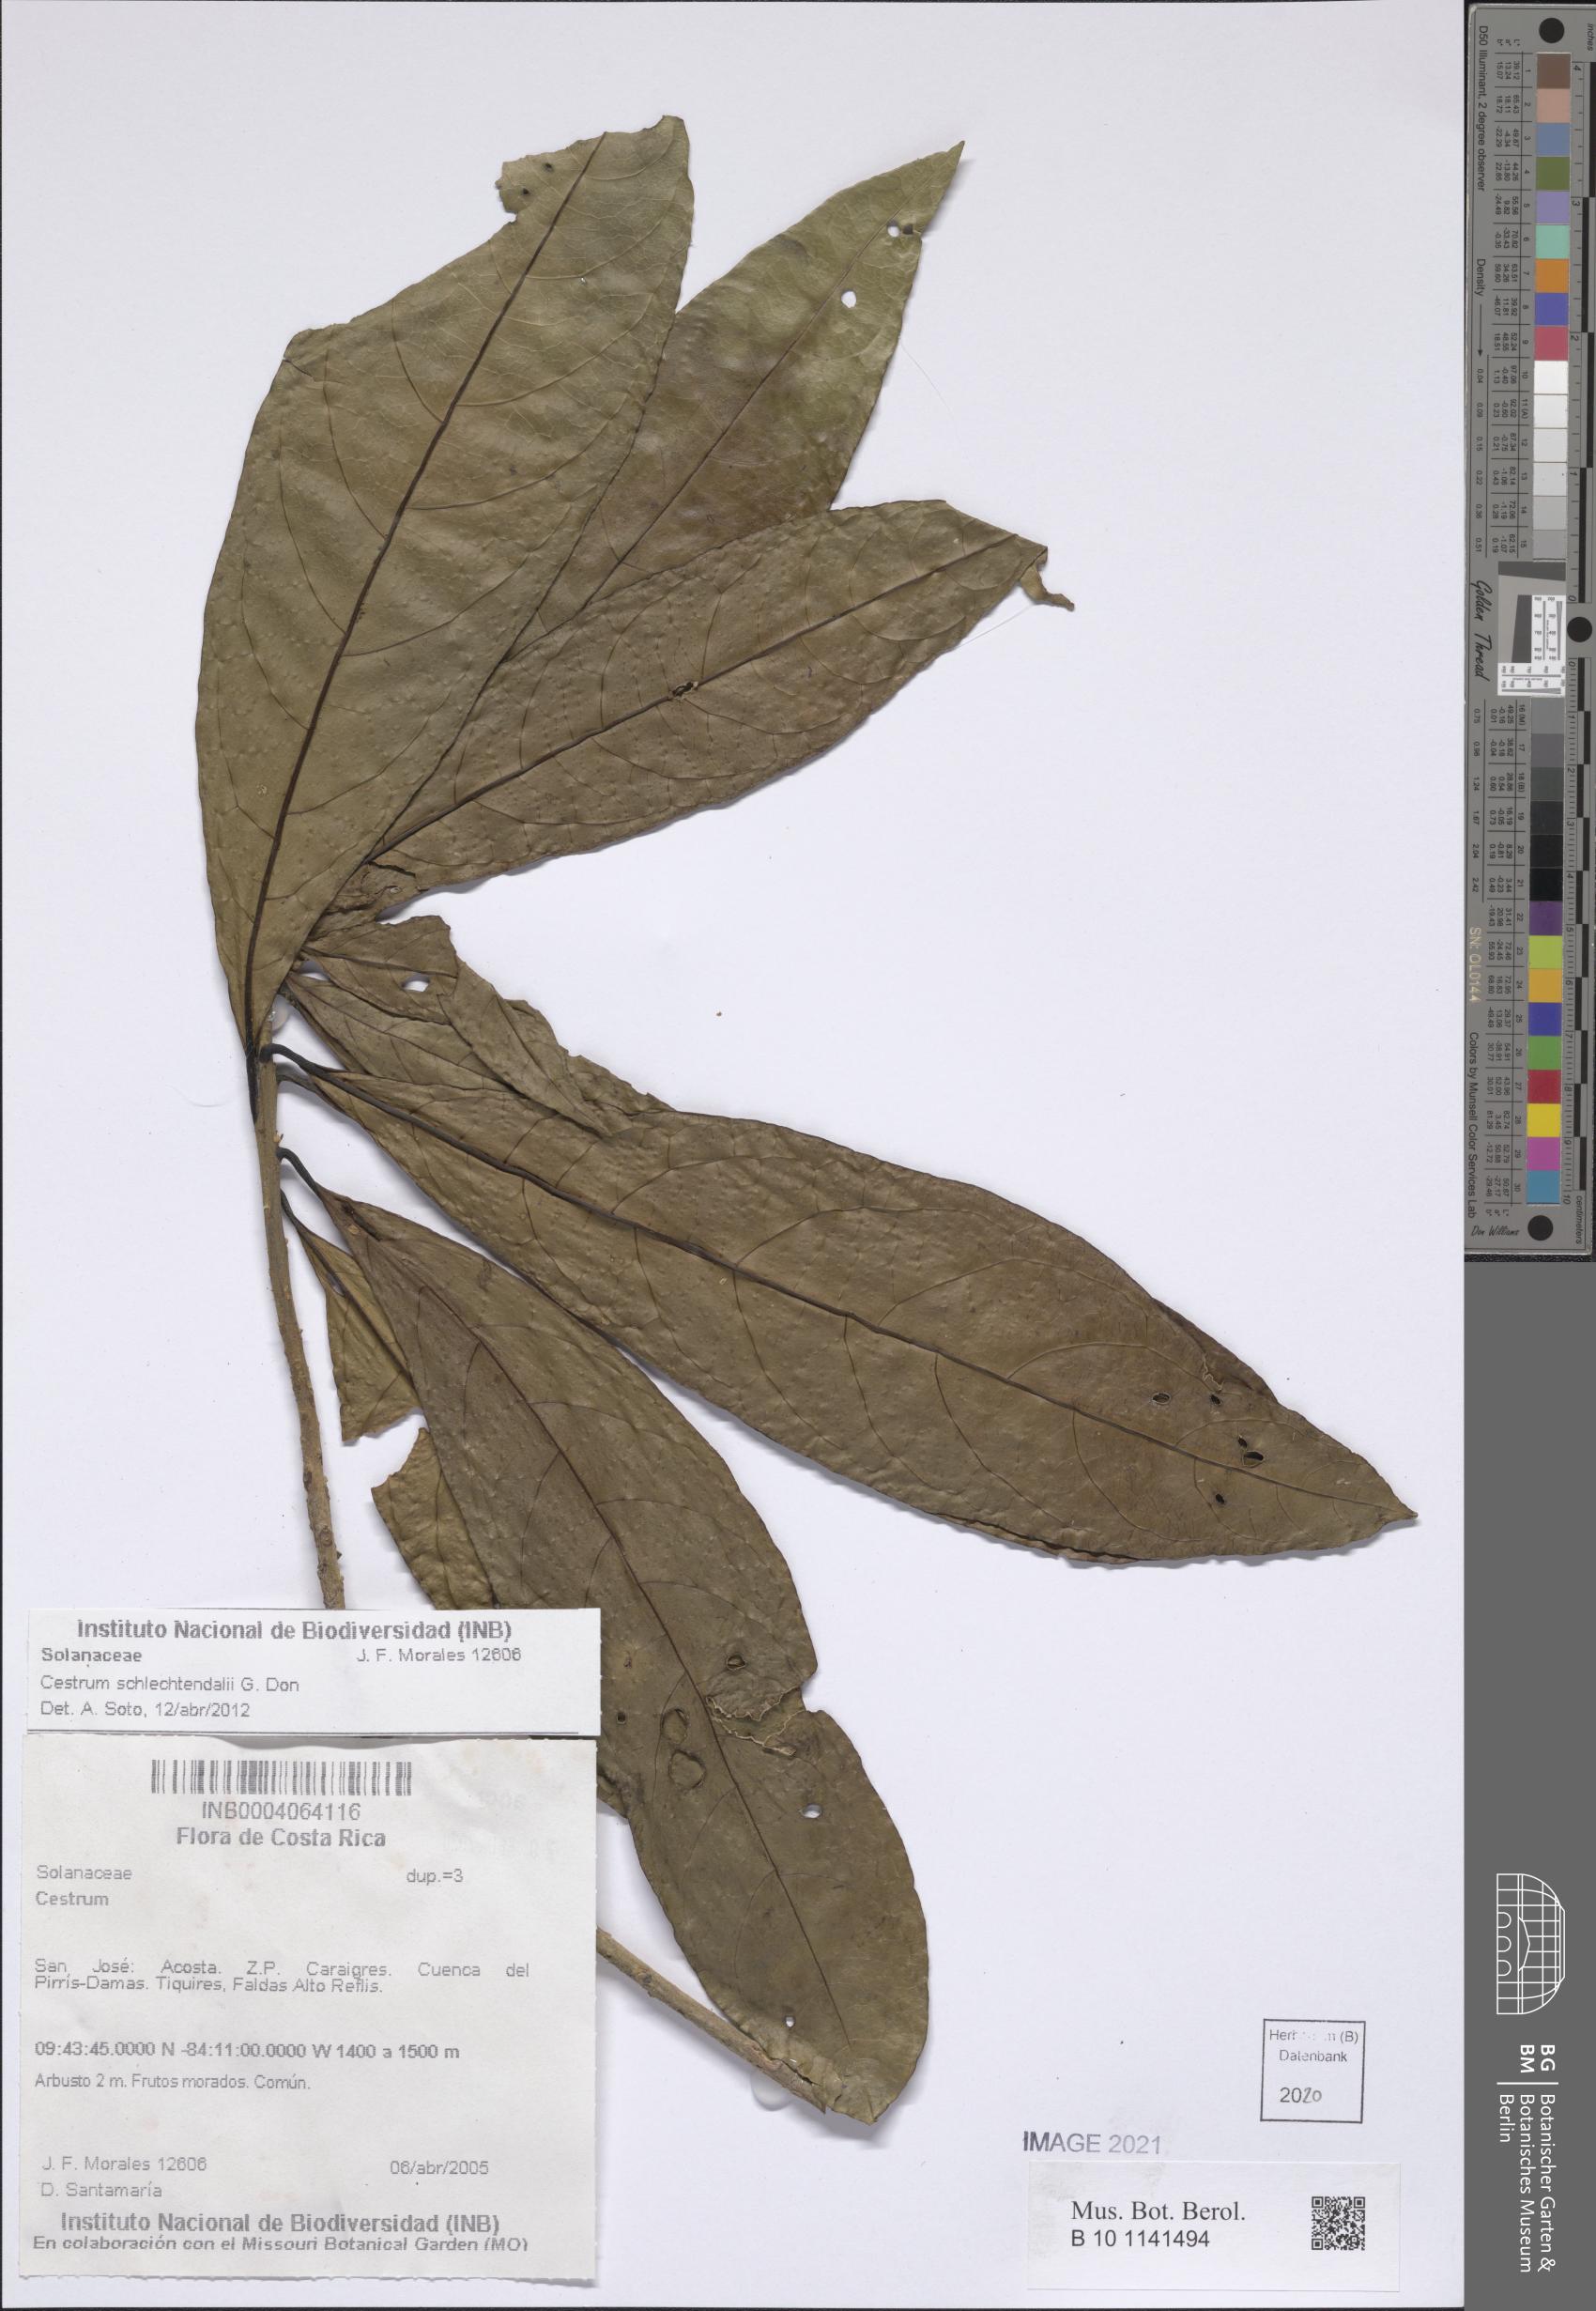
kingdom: Plantae
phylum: Tracheophyta
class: Magnoliopsida
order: Solanales
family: Solanaceae
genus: Cestrum
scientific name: Cestrum schlechtendalii
